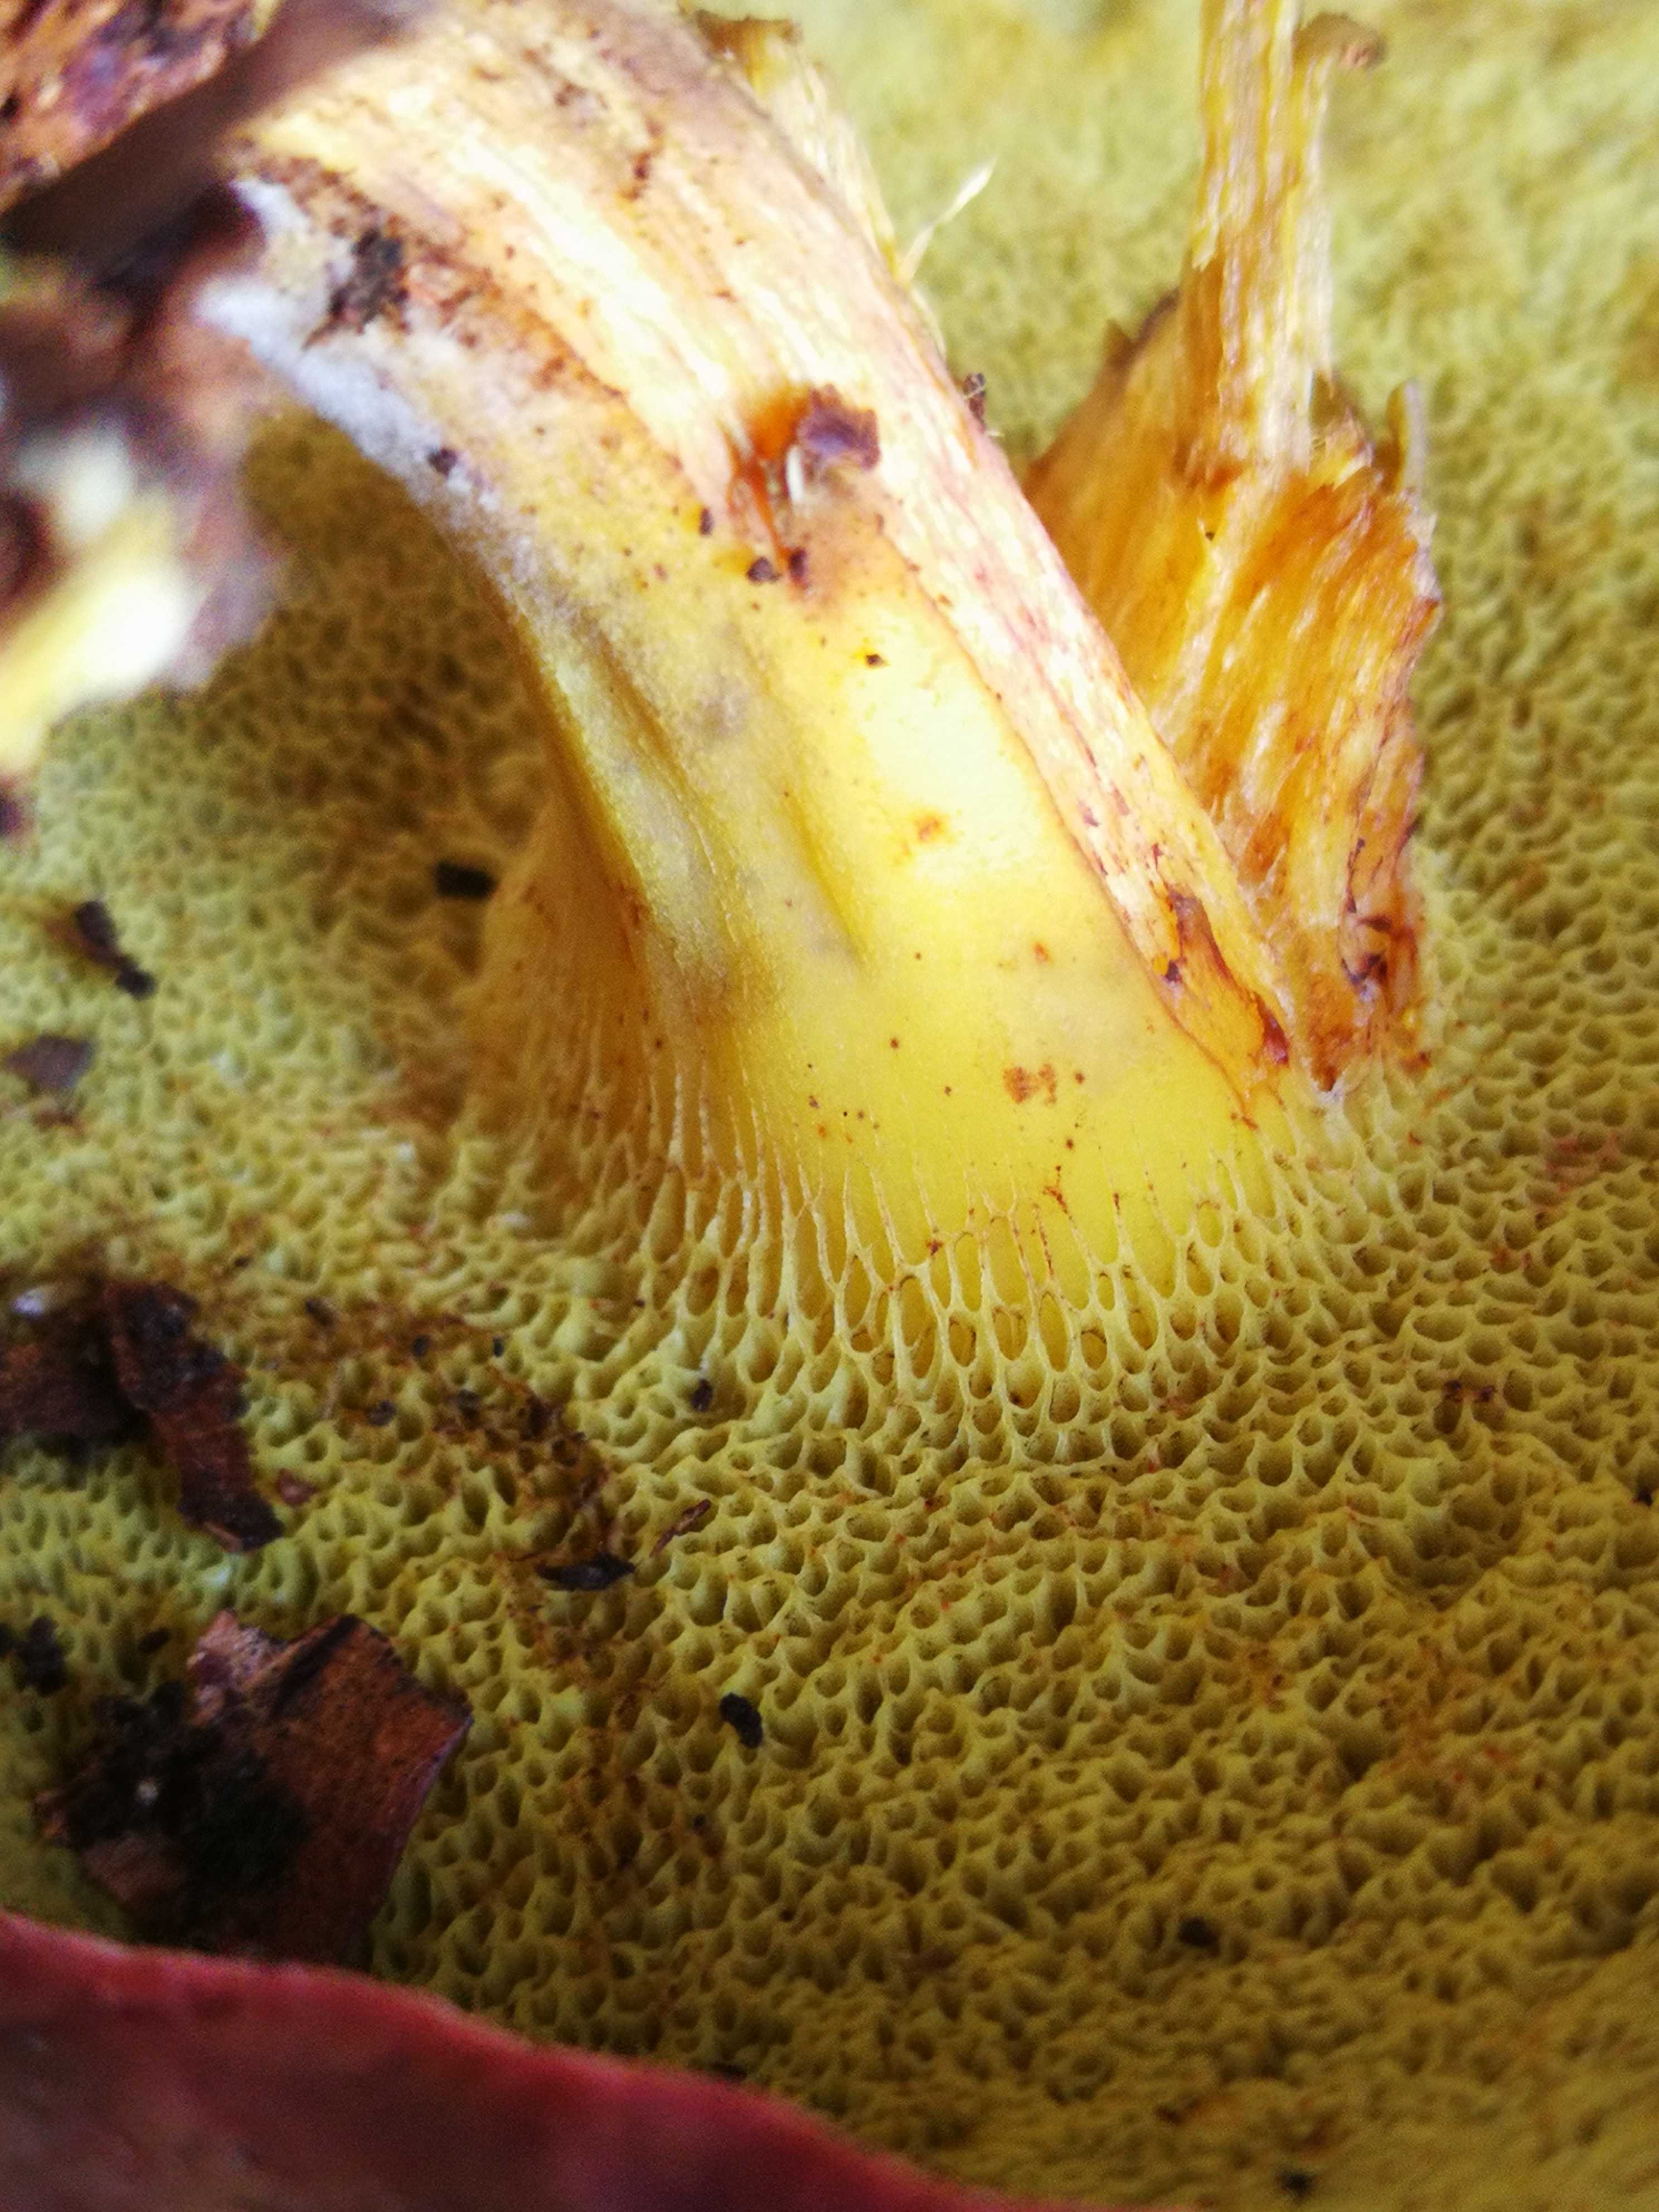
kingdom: Fungi
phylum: Basidiomycota
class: Agaricomycetes
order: Boletales
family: Boletaceae
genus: Xerocomellus
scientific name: Xerocomellus pruinatus
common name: dugget rørhat
